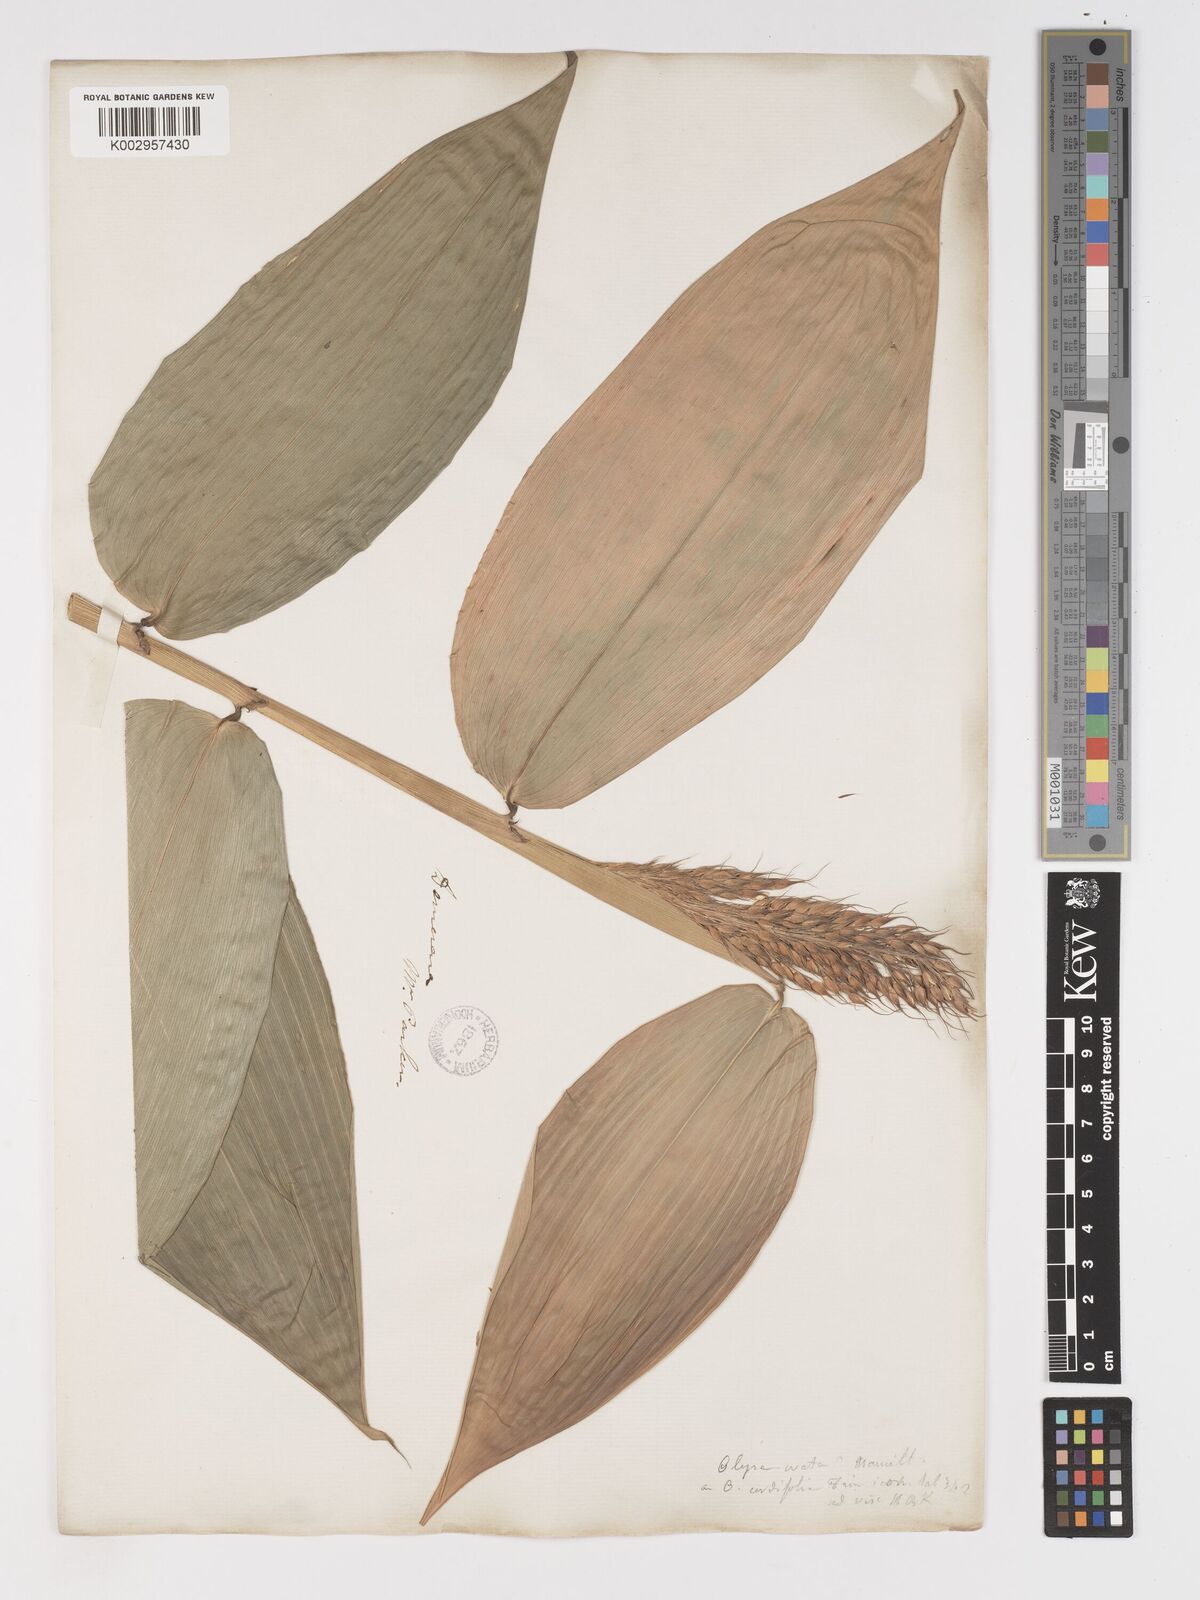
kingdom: Plantae
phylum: Tracheophyta
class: Liliopsida
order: Poales
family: Poaceae
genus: Olyra
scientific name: Olyra latifolia
